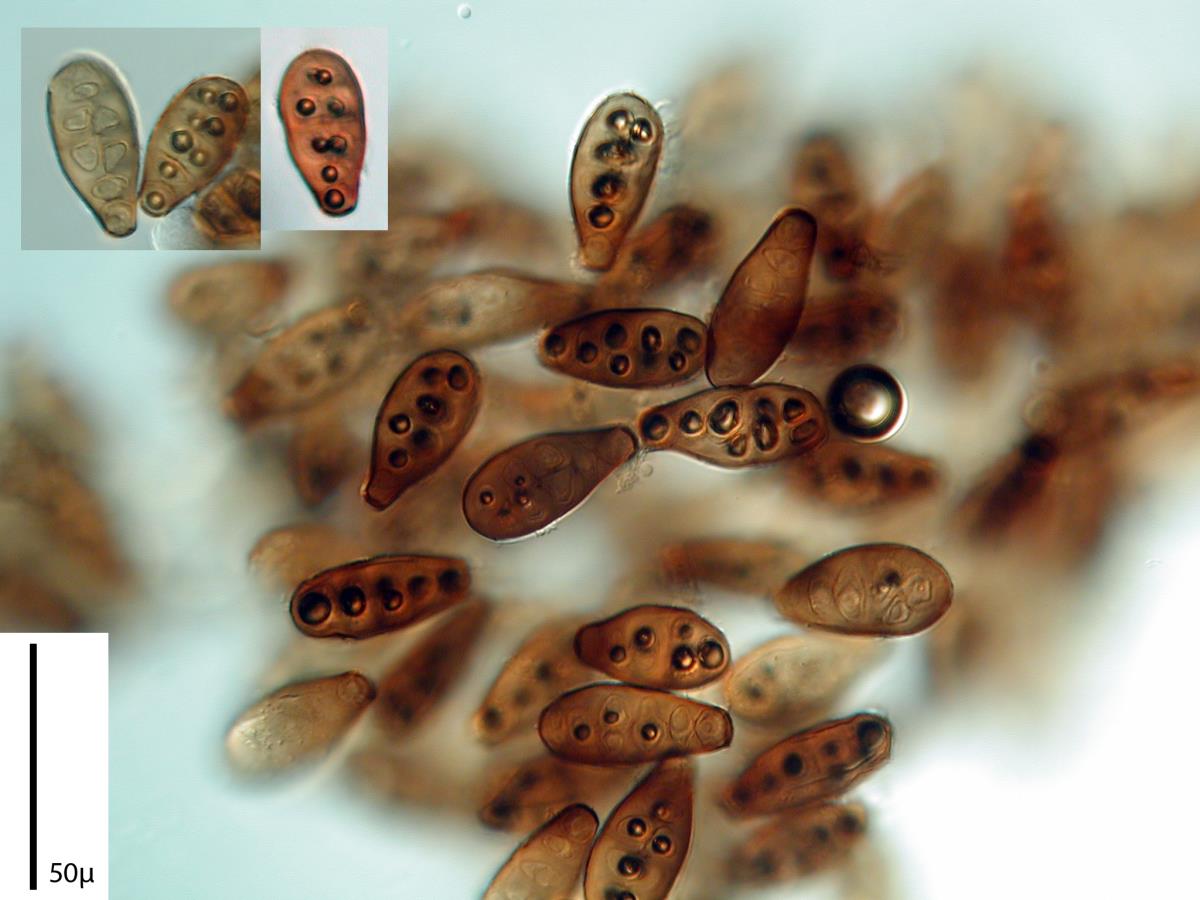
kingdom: Fungi
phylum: Ascomycota
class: Sordariomycetes
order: Diaporthales
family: Melanconidaceae
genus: Prosthecium
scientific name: Prosthecium pyriforme
